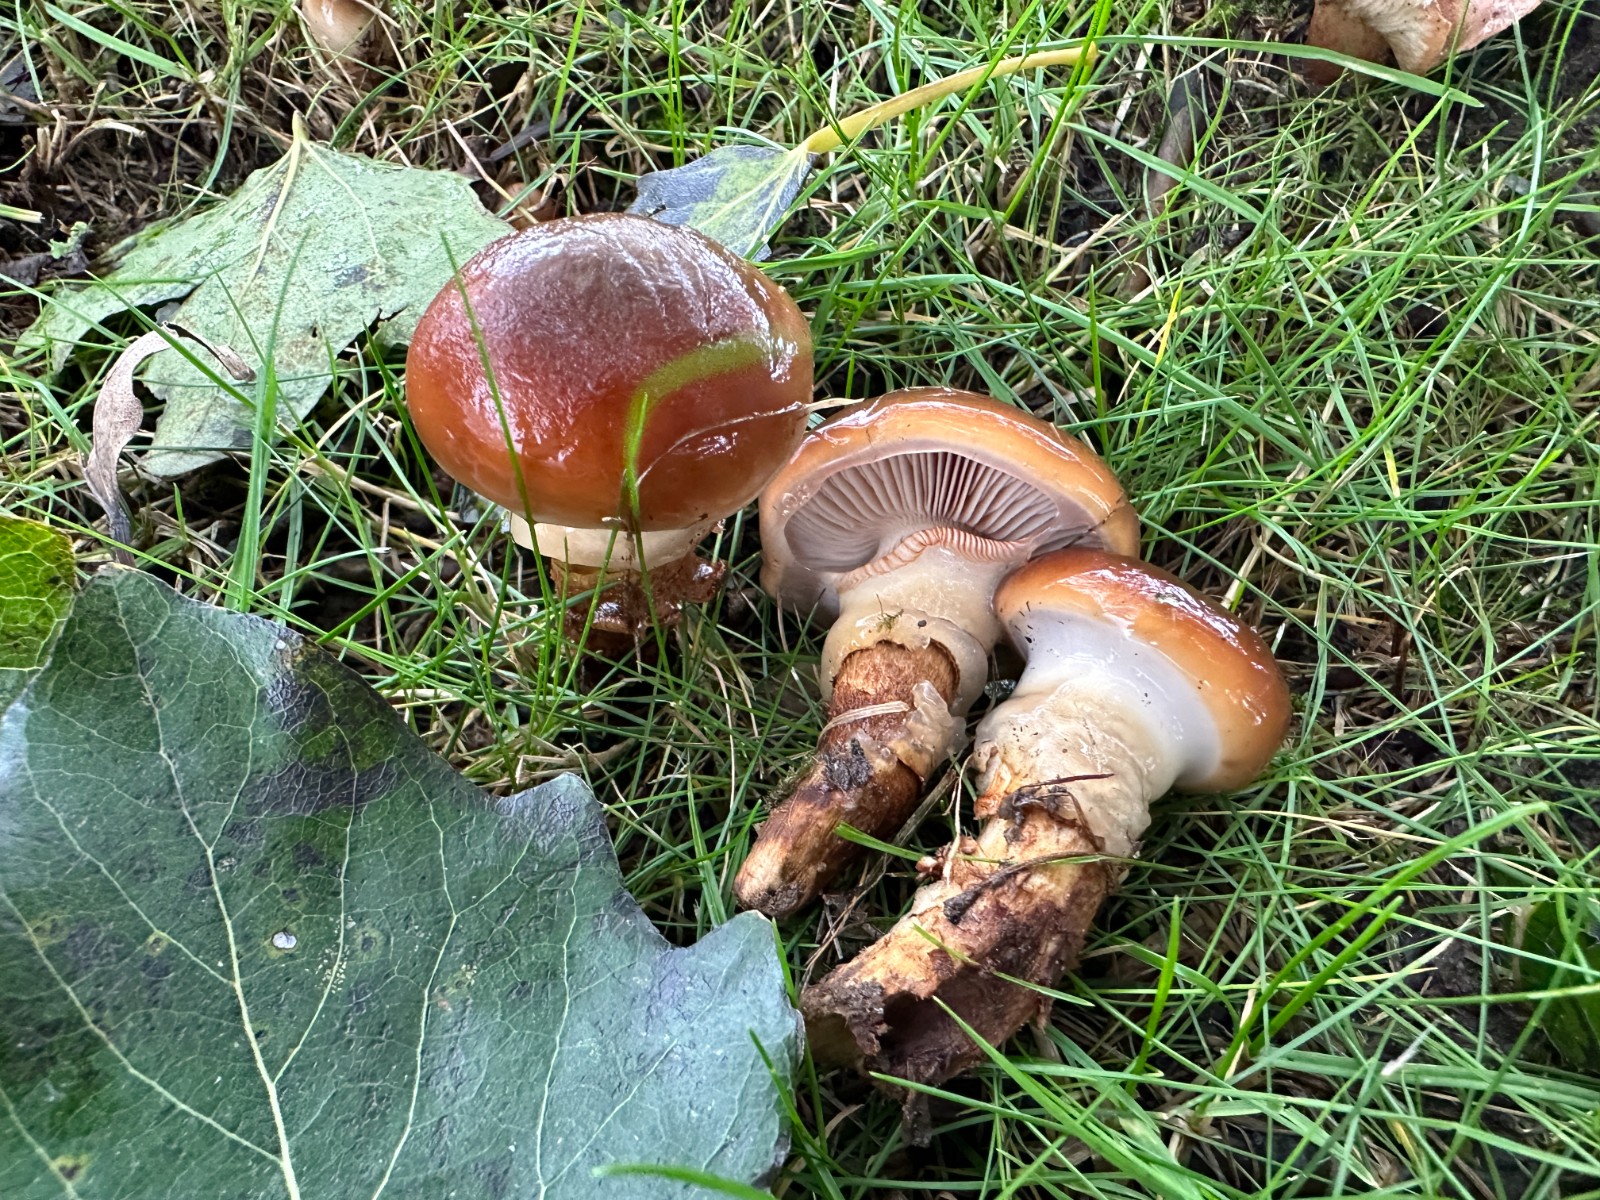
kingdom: Fungi
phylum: Basidiomycota
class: Agaricomycetes
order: Agaricales
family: Cortinariaceae
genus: Cortinarius
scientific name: Cortinarius trivialis
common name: Girdled webcap
